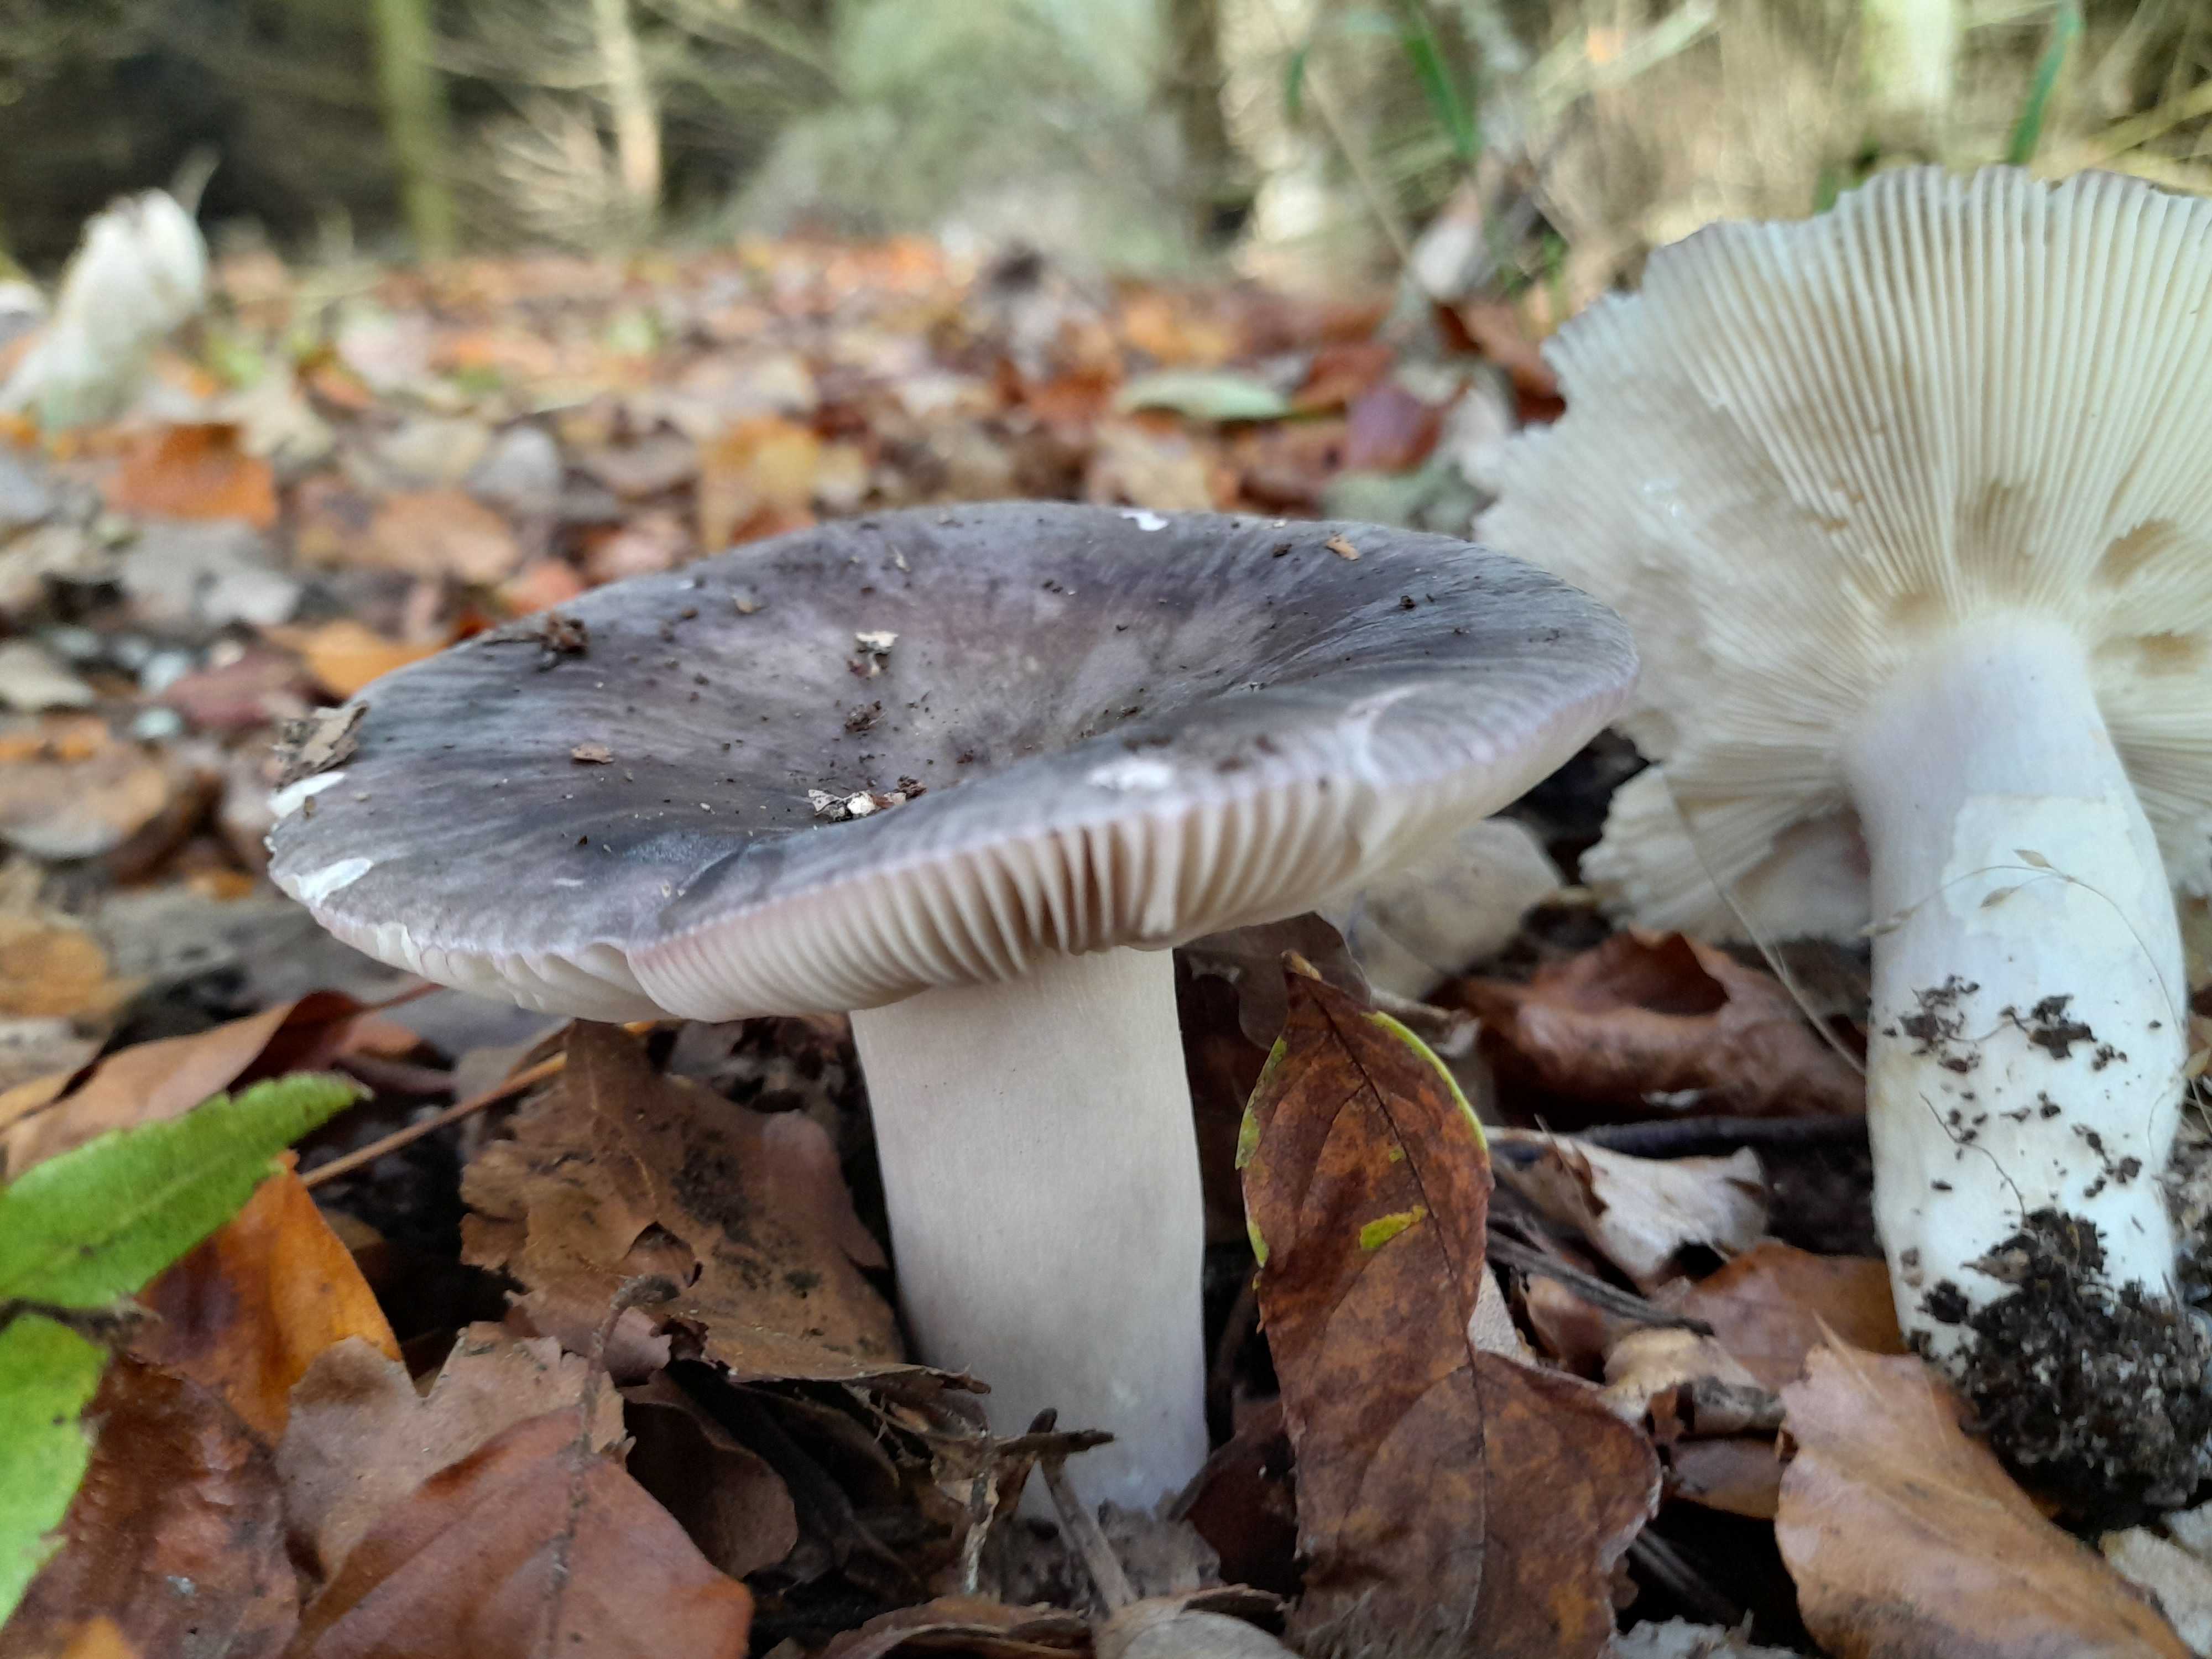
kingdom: Fungi
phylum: Basidiomycota
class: Agaricomycetes
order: Russulales
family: Russulaceae
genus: Russula
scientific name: Russula
